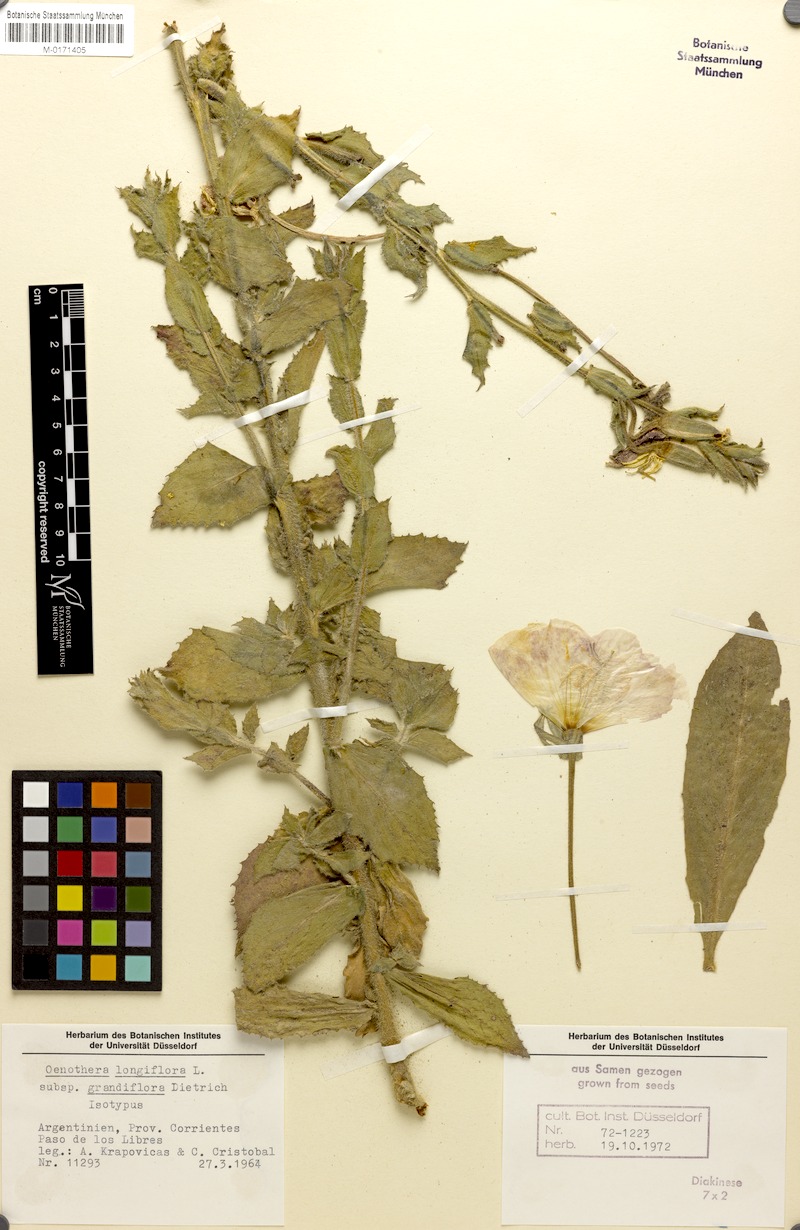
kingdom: Plantae
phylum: Tracheophyta
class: Magnoliopsida
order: Myrtales
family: Onagraceae
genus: Oenothera
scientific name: Oenothera longiflora
